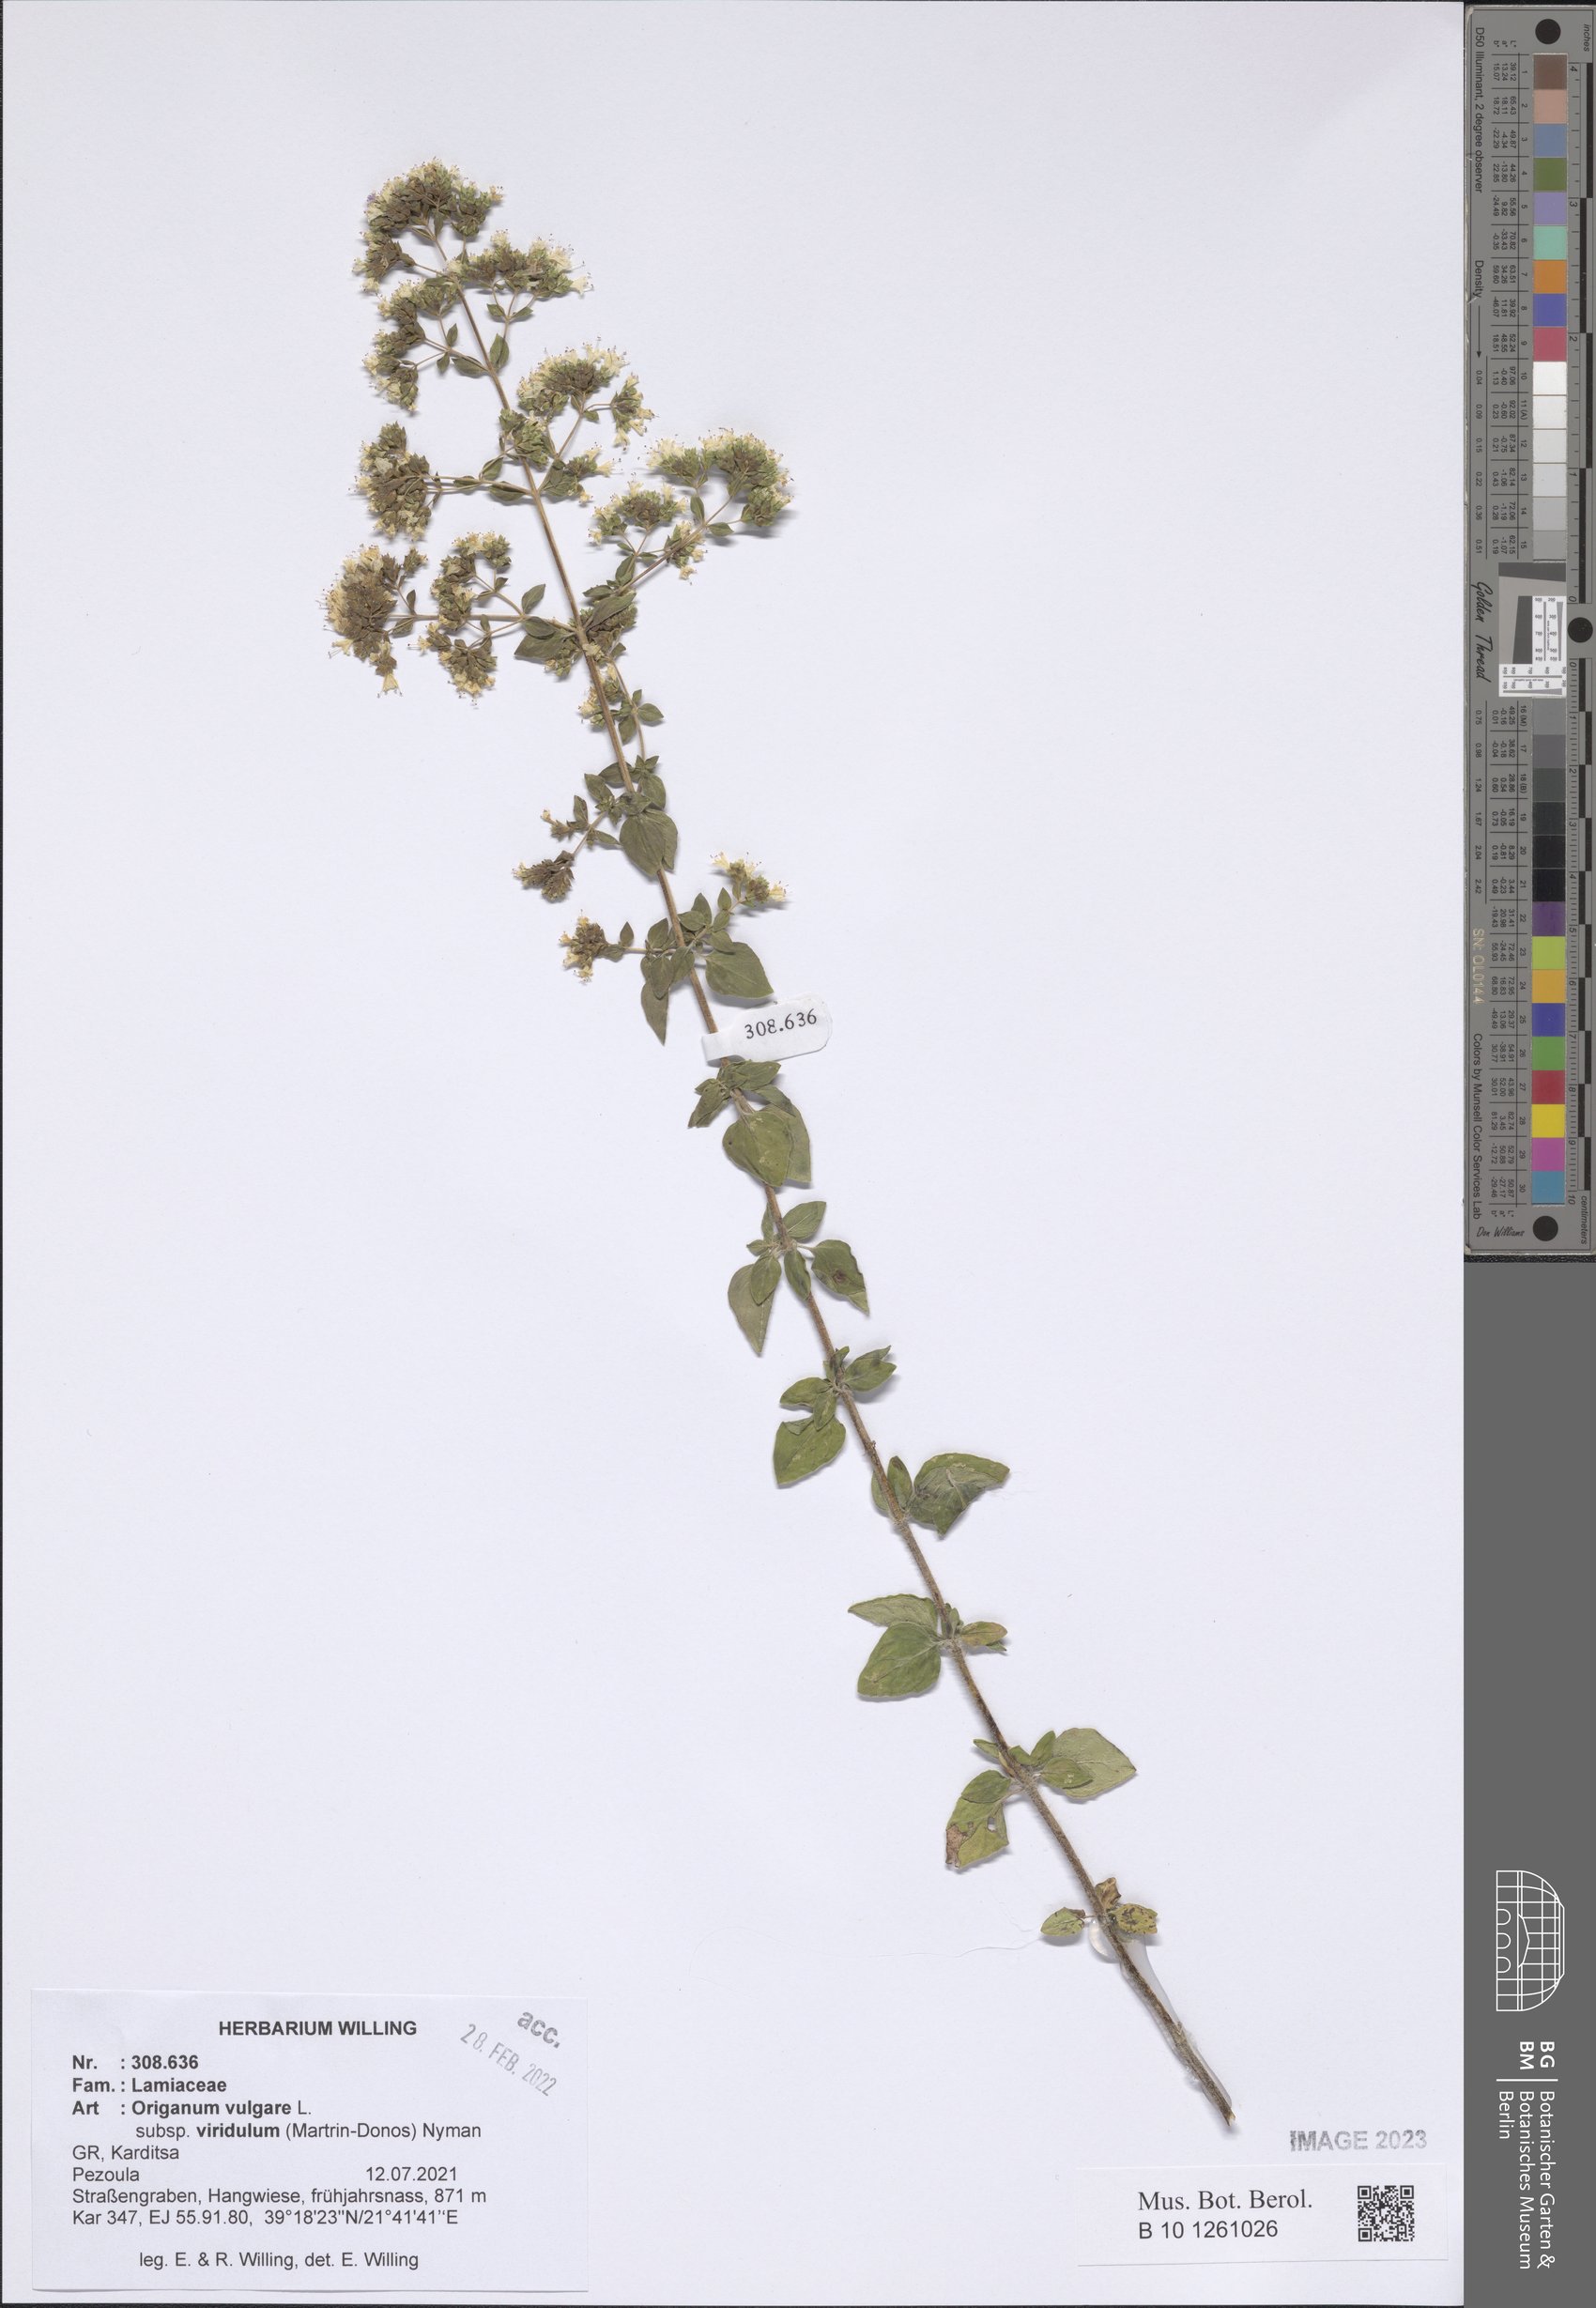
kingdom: Plantae
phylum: Tracheophyta
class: Magnoliopsida
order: Lamiales
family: Lamiaceae
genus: Origanum
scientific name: Origanum vulgare
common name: Wild marjoram
